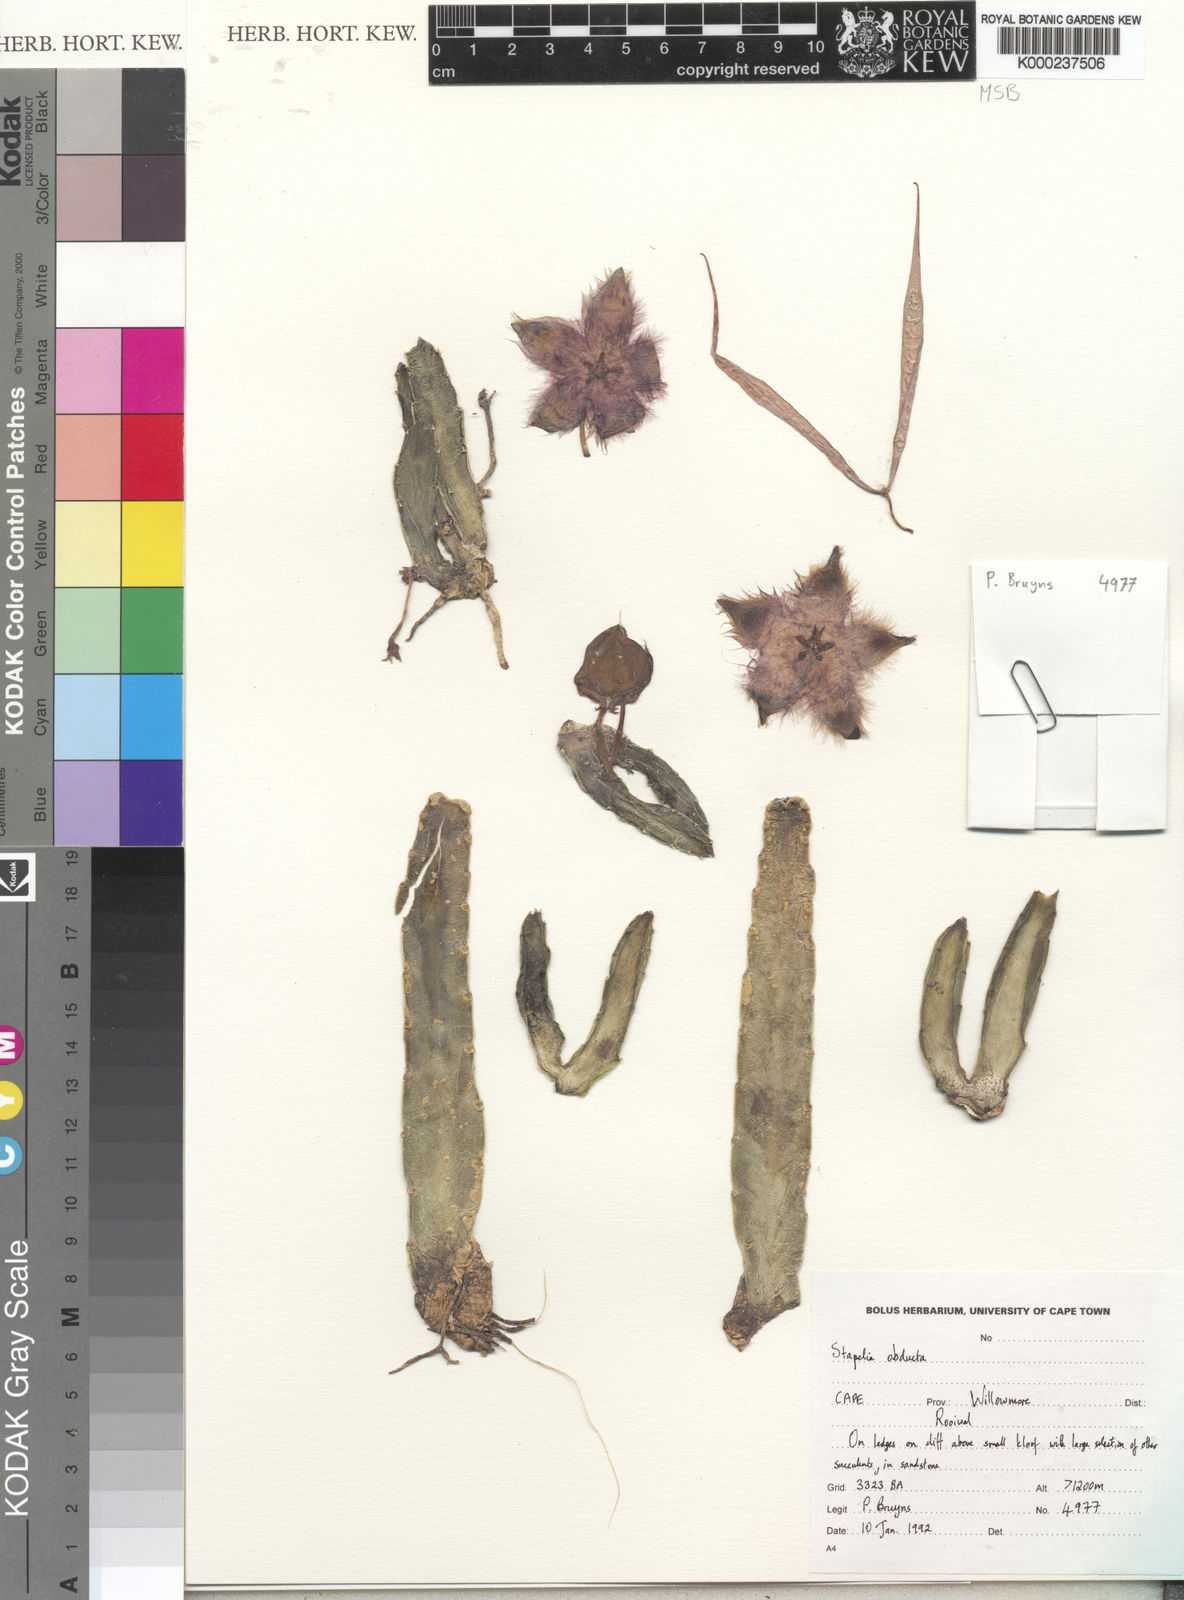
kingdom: Plantae
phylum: Tracheophyta
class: Magnoliopsida
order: Gentianales
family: Apocynaceae
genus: Ceropegia
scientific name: Ceropegia obducta
